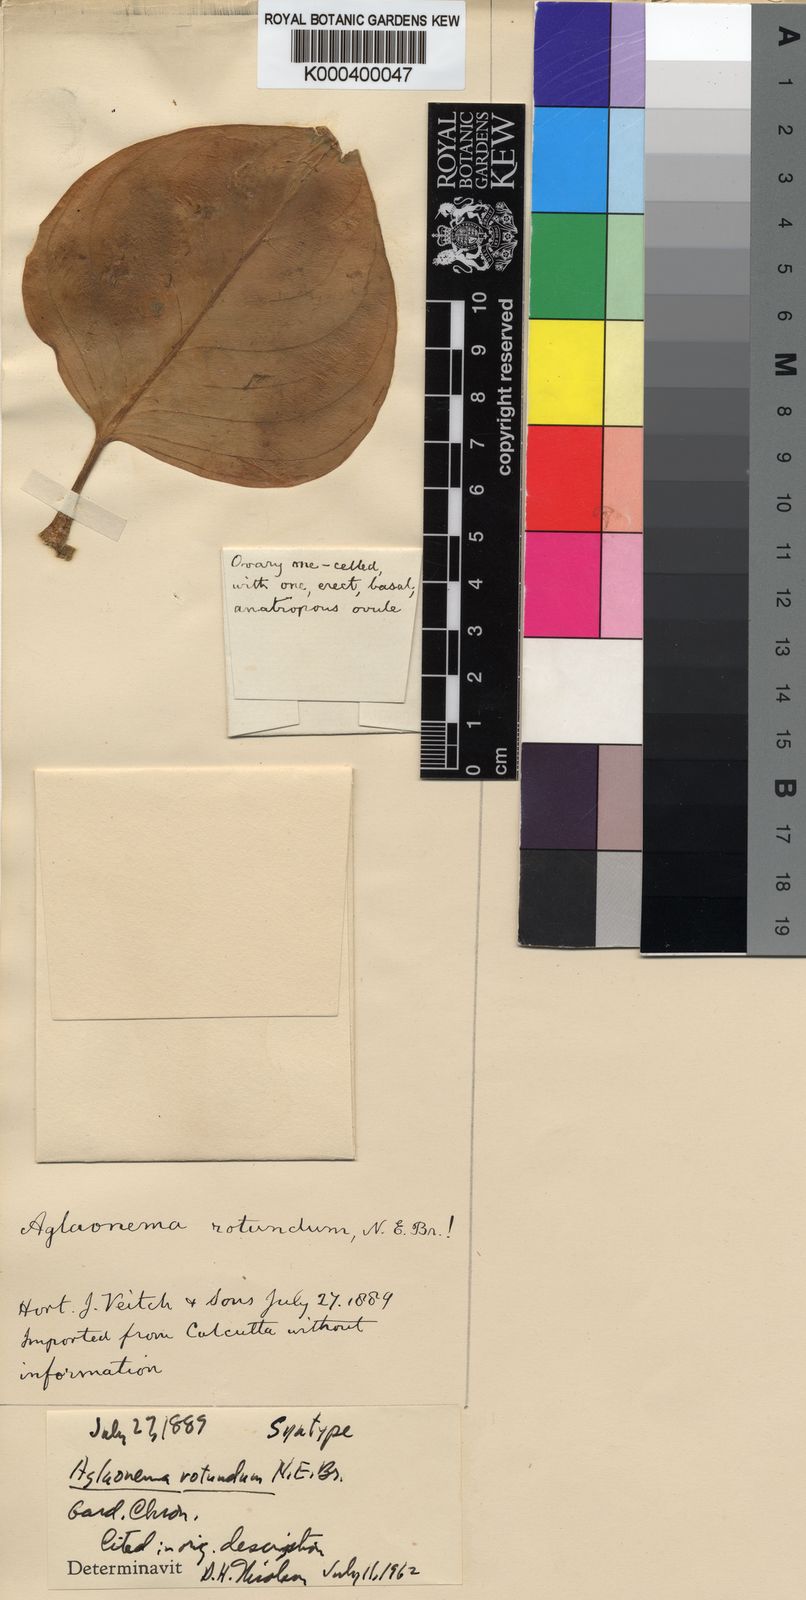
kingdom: Plantae
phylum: Tracheophyta
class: Liliopsida
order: Alismatales
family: Araceae
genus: Aglaonema
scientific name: Aglaonema rotundum
